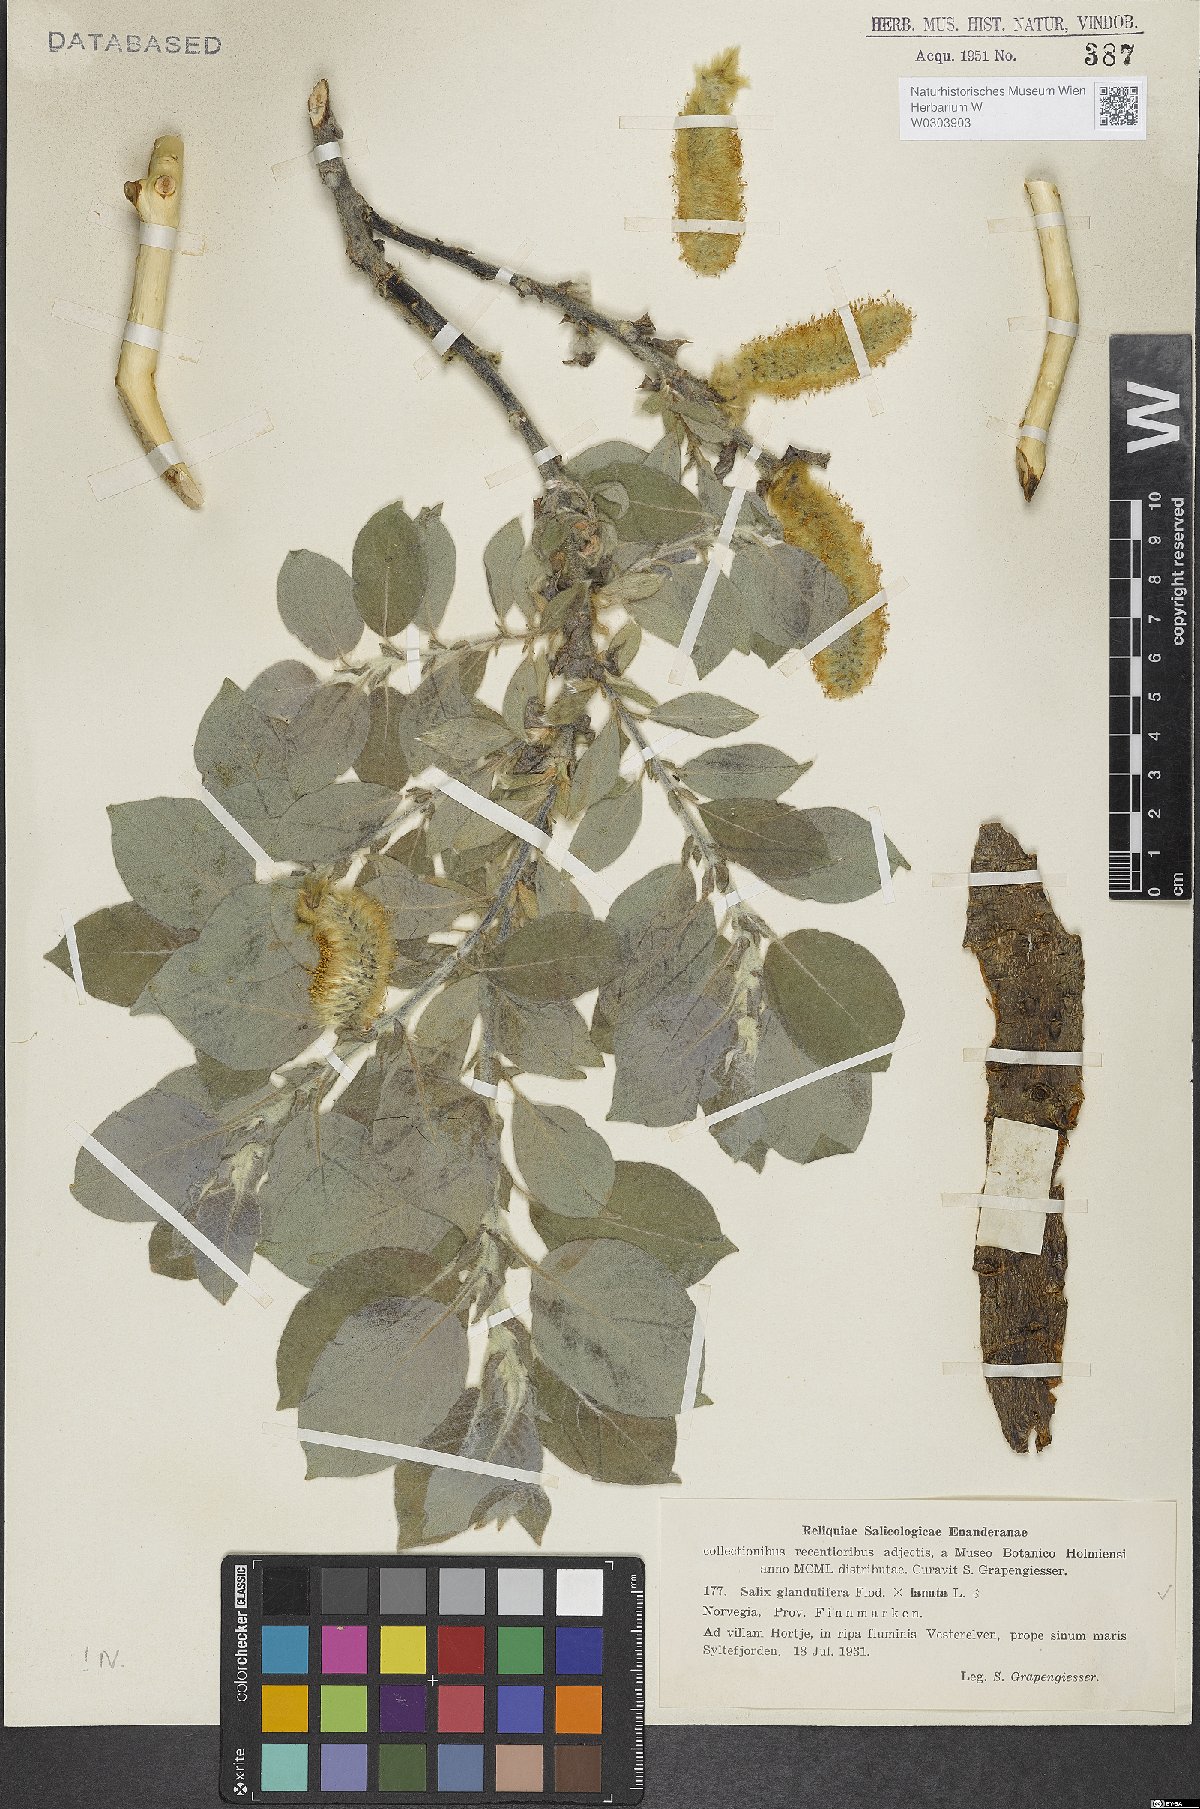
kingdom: Plantae
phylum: Tracheophyta
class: Magnoliopsida
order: Malpighiales
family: Salicaceae
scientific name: Salicaceae
